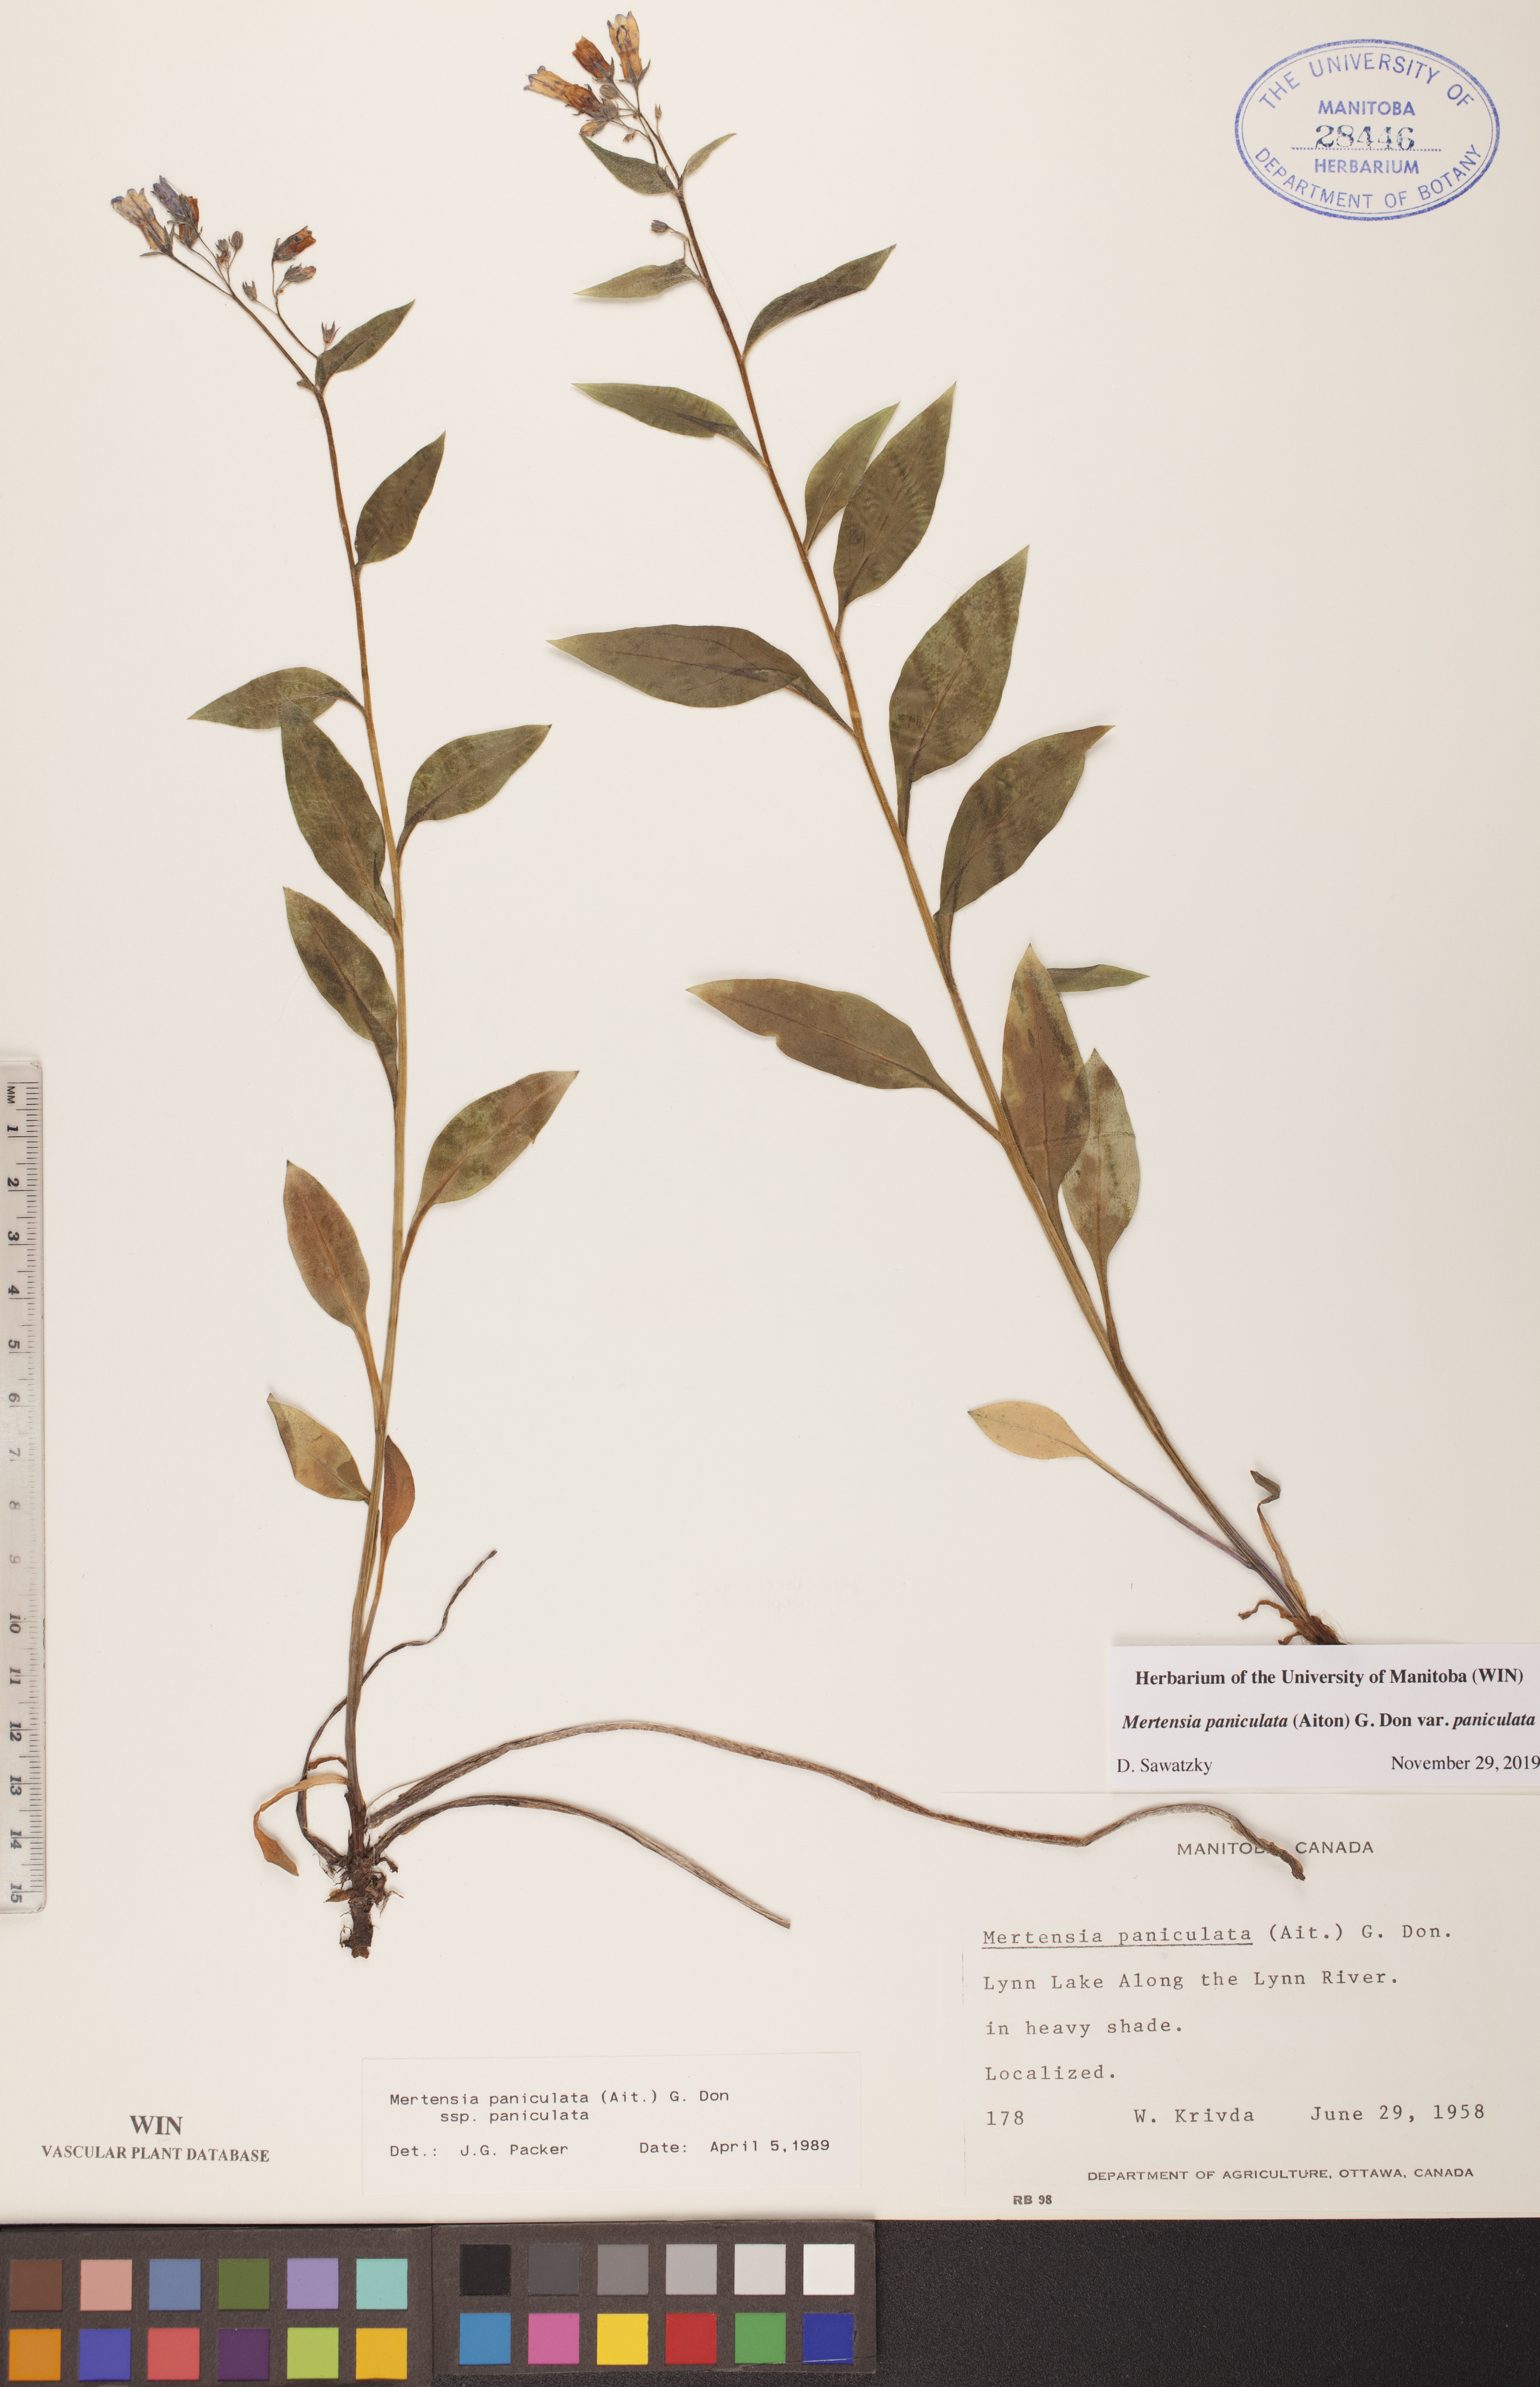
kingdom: Plantae
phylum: Tracheophyta
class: Magnoliopsida
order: Boraginales
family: Boraginaceae
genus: Mertensia
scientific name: Mertensia paniculata
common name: Panicled bluebells
